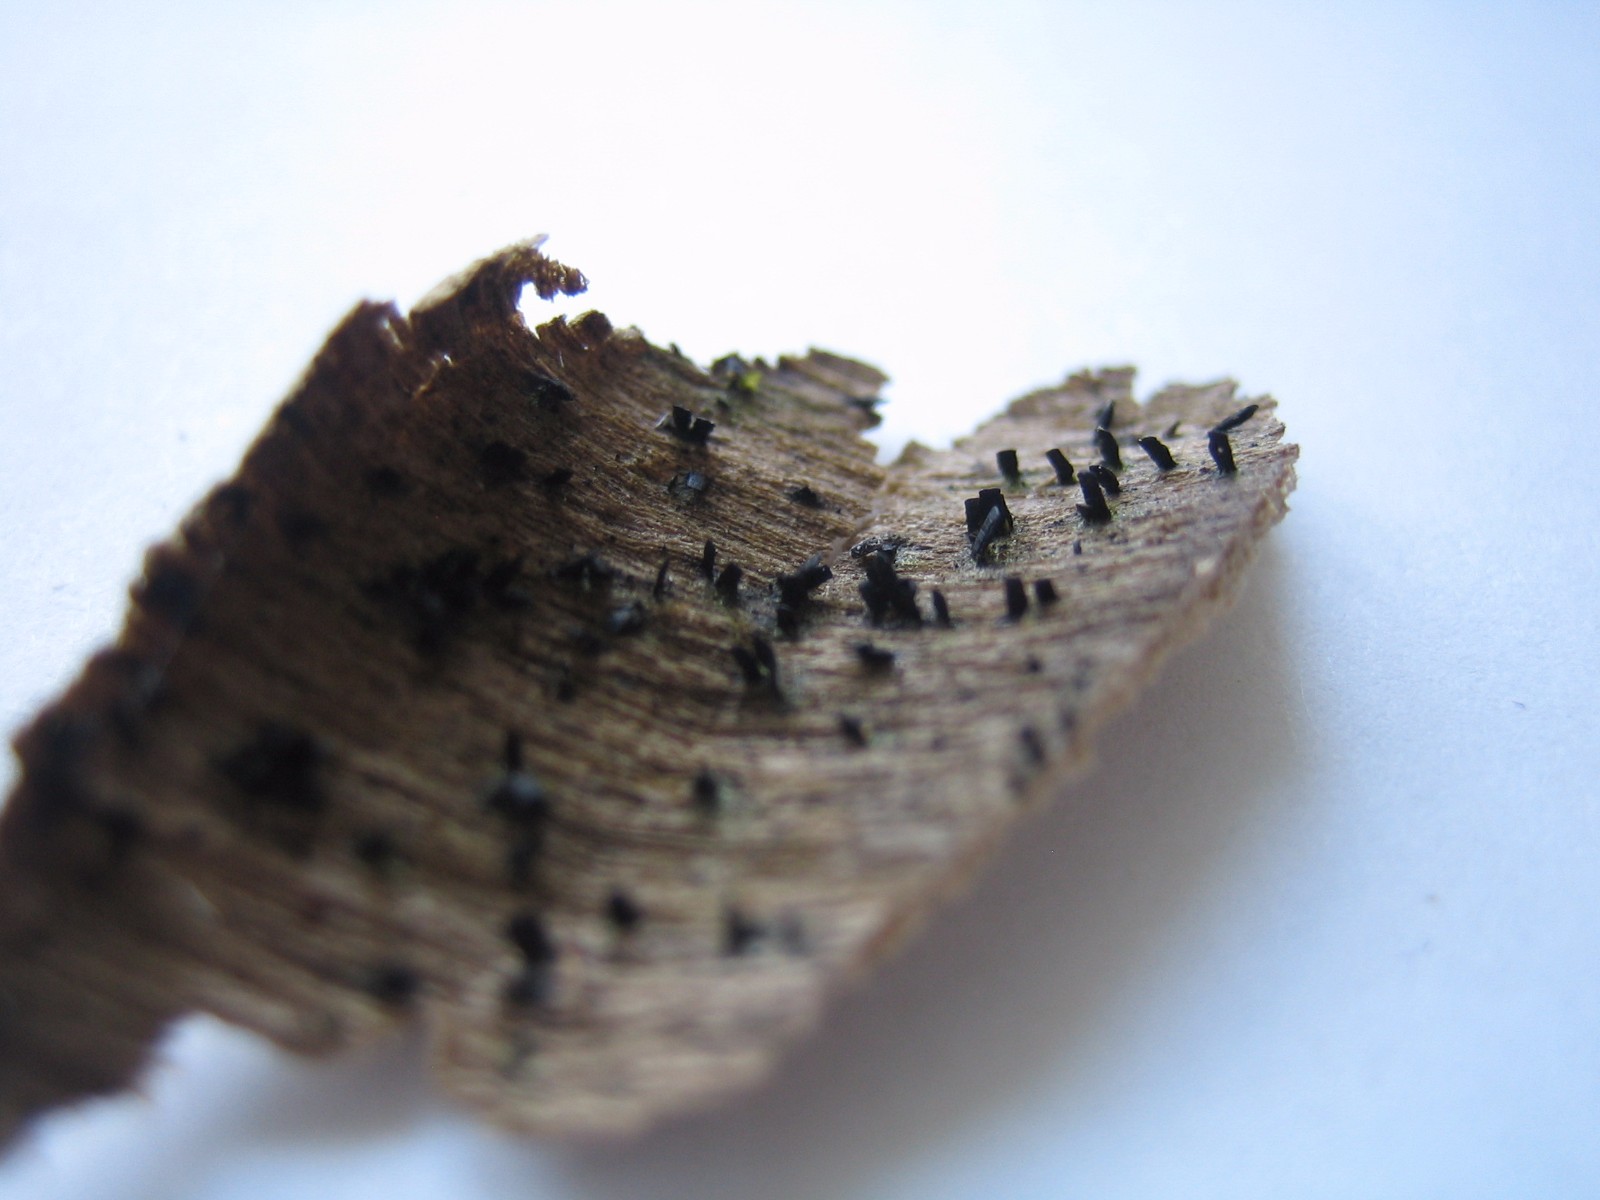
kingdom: Fungi
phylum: Ascomycota
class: Eurotiomycetes
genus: Glyphium
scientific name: Glyphium elatum
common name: kuløkse
